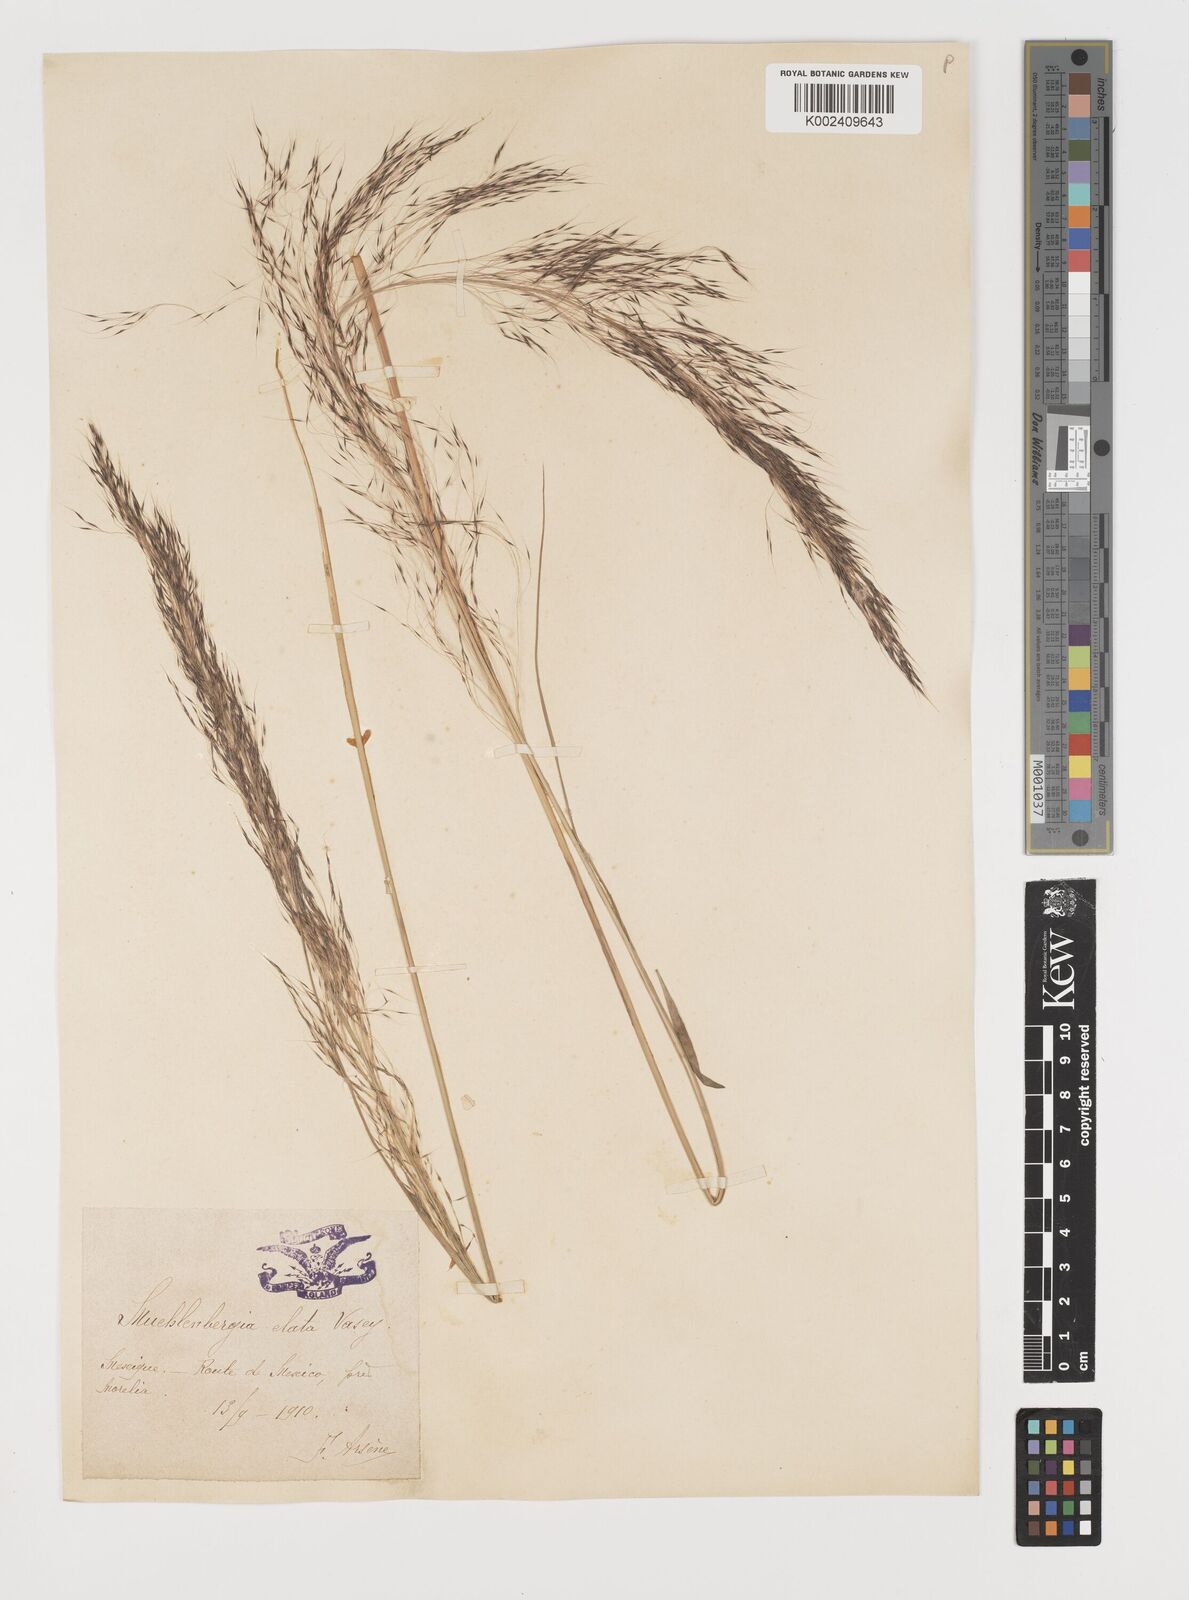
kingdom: Plantae
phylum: Tracheophyta
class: Liliopsida
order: Poales
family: Poaceae
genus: Muhlenbergia
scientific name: Muhlenbergia stricta
